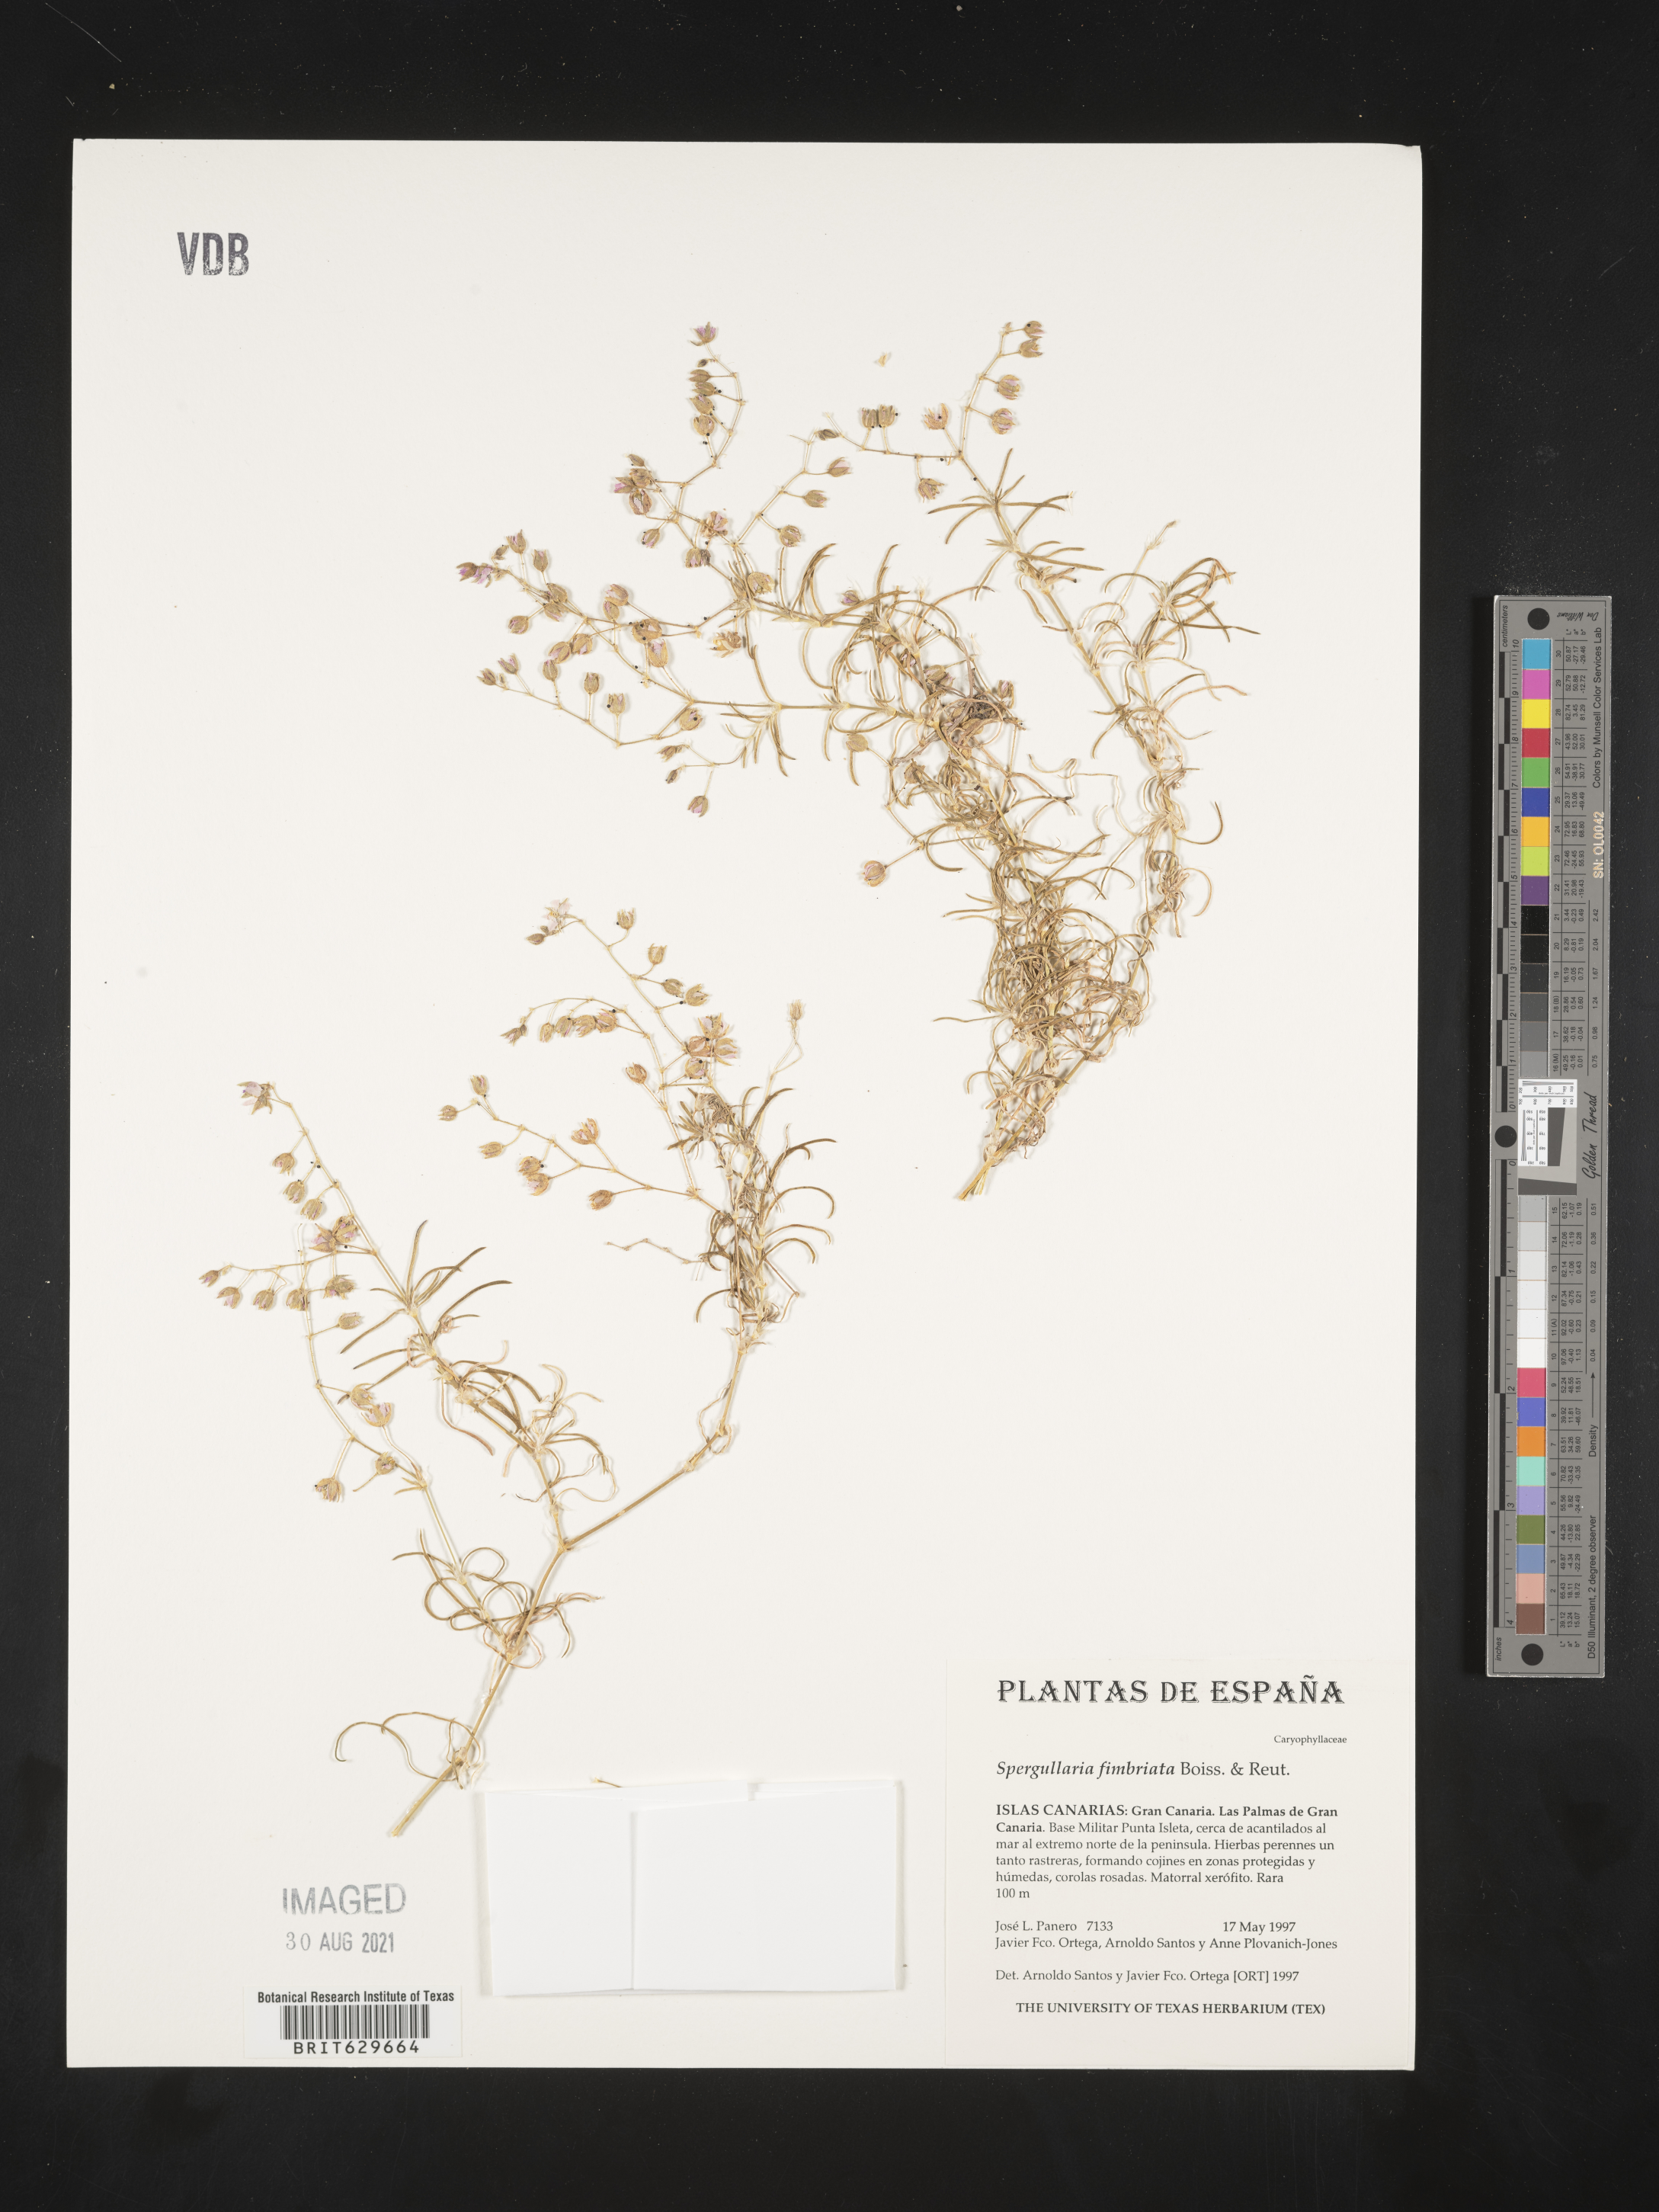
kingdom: Plantae
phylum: Tracheophyta
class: Magnoliopsida
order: Caryophyllales
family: Caryophyllaceae
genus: Spergularia
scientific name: Spergularia fimbriata
